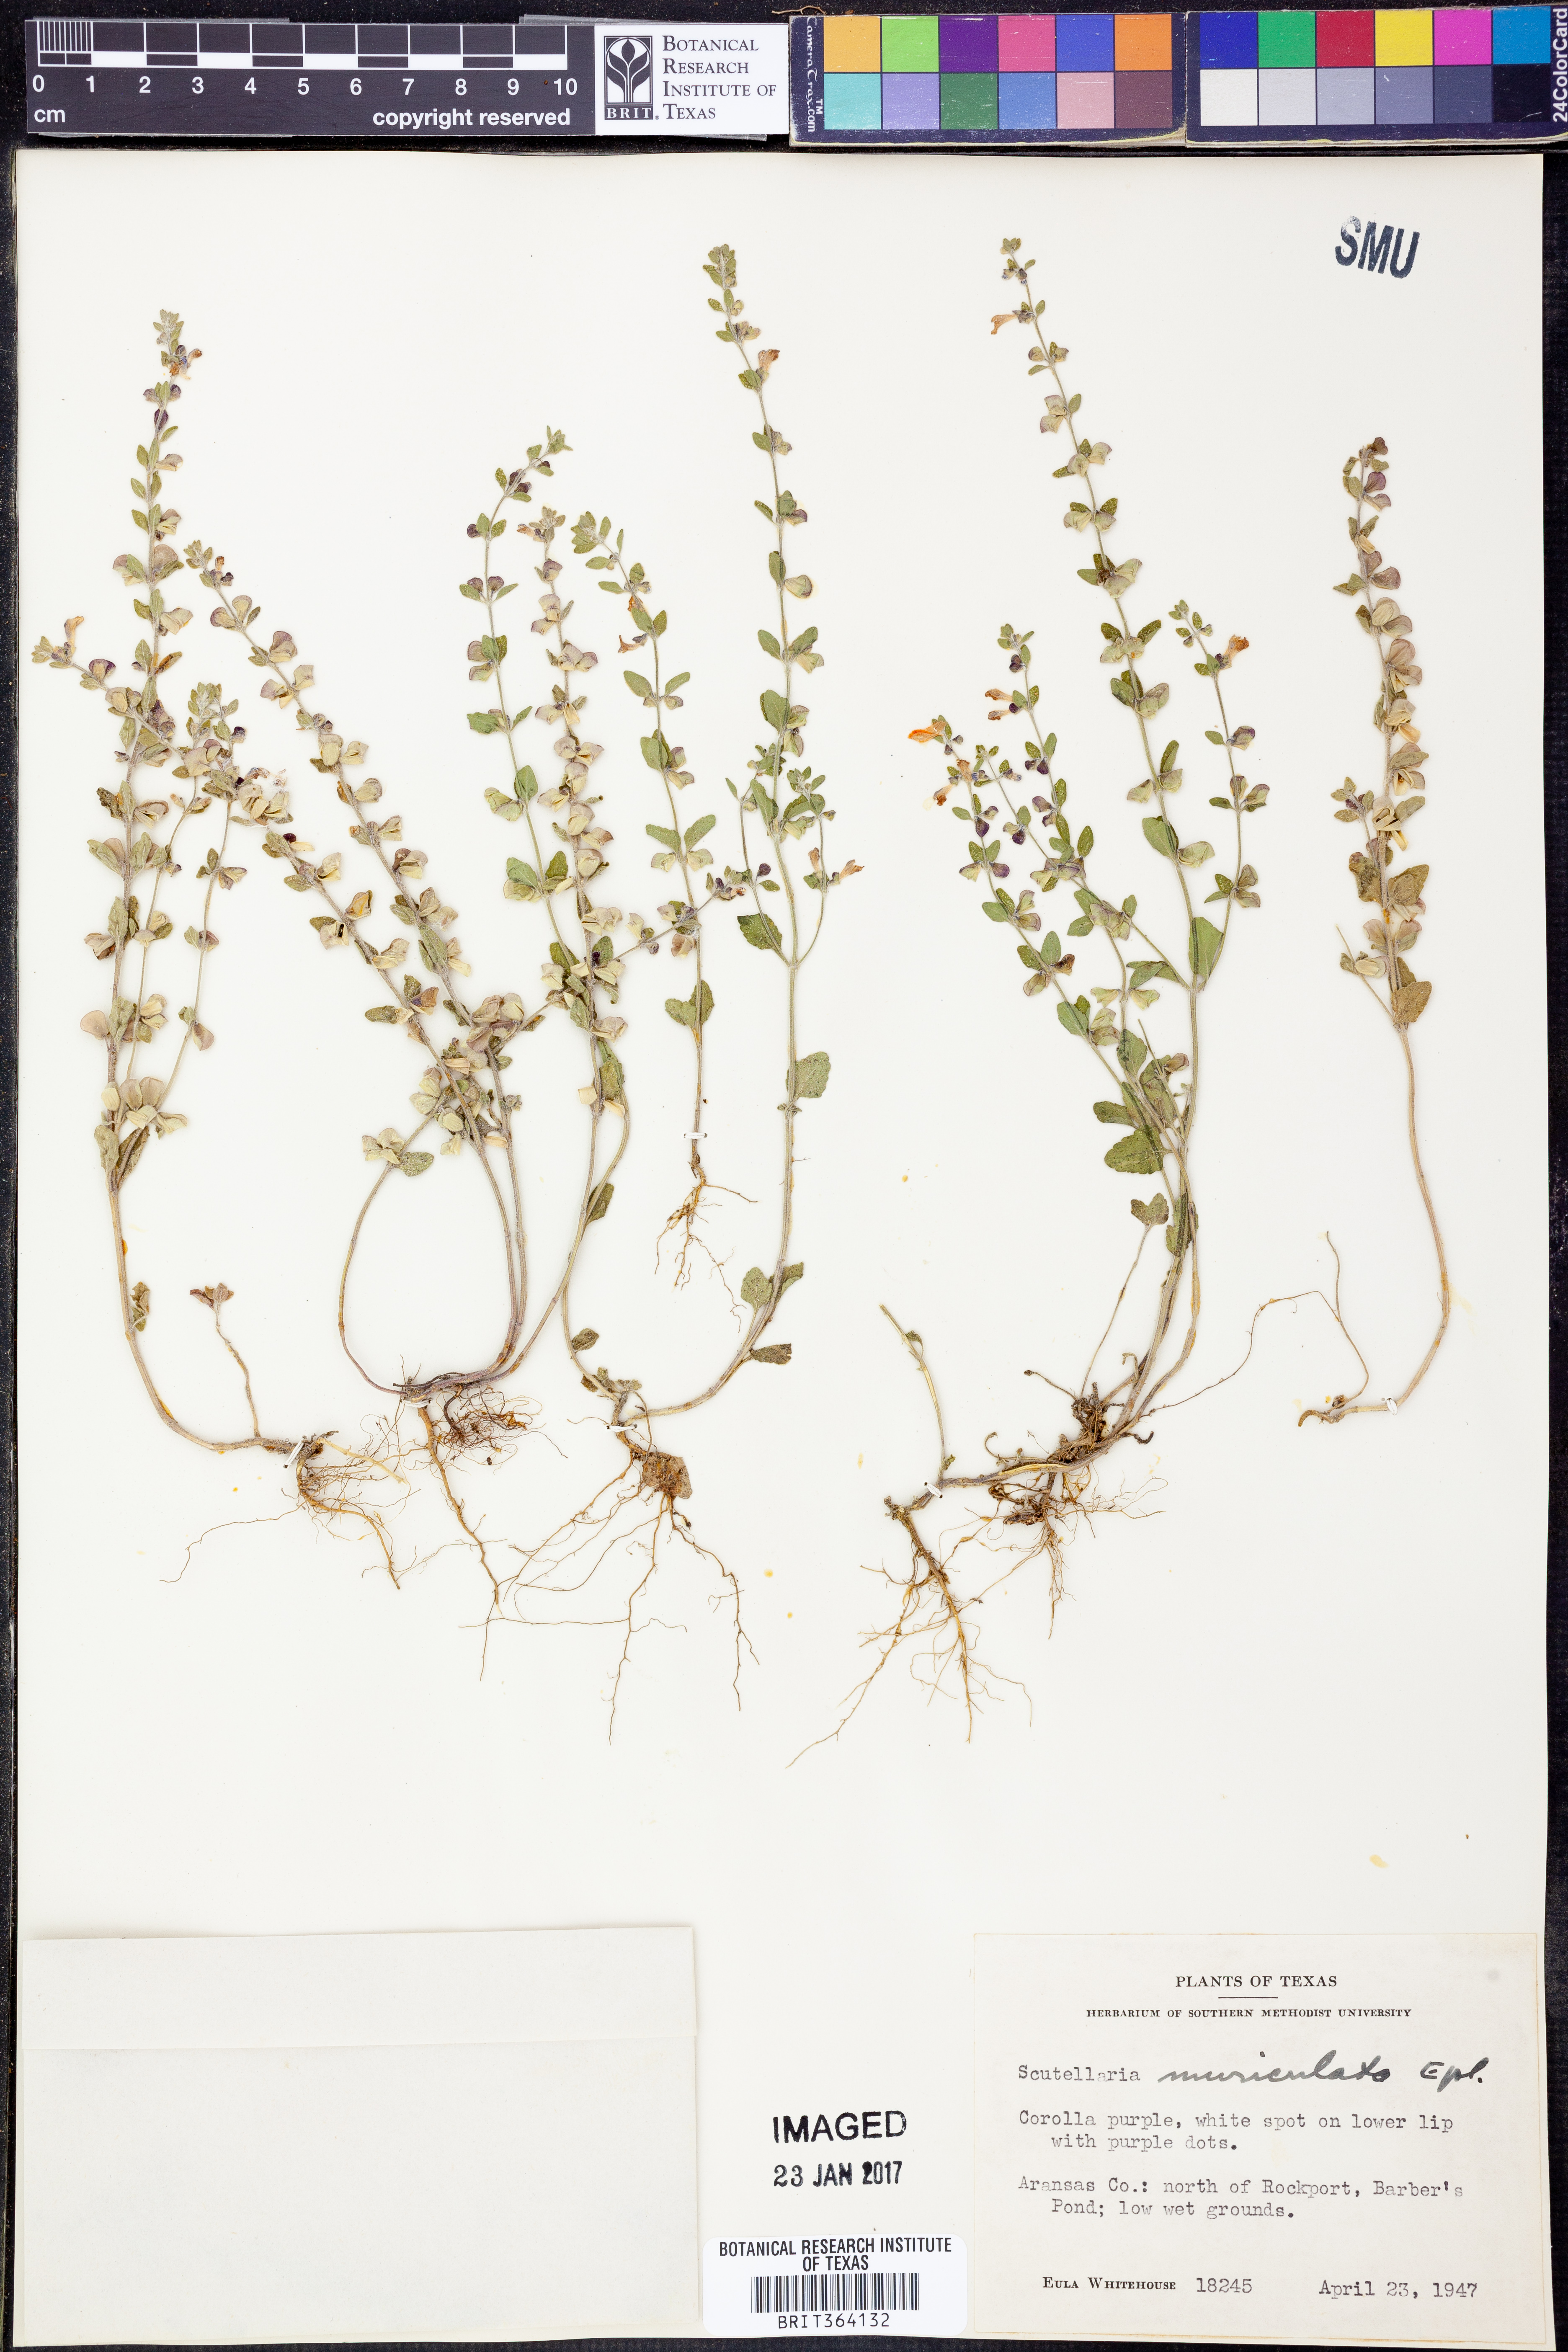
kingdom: Plantae
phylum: Tracheophyta
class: Magnoliopsida
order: Lamiales
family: Lamiaceae
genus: Scutellaria
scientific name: Scutellaria muriculata
